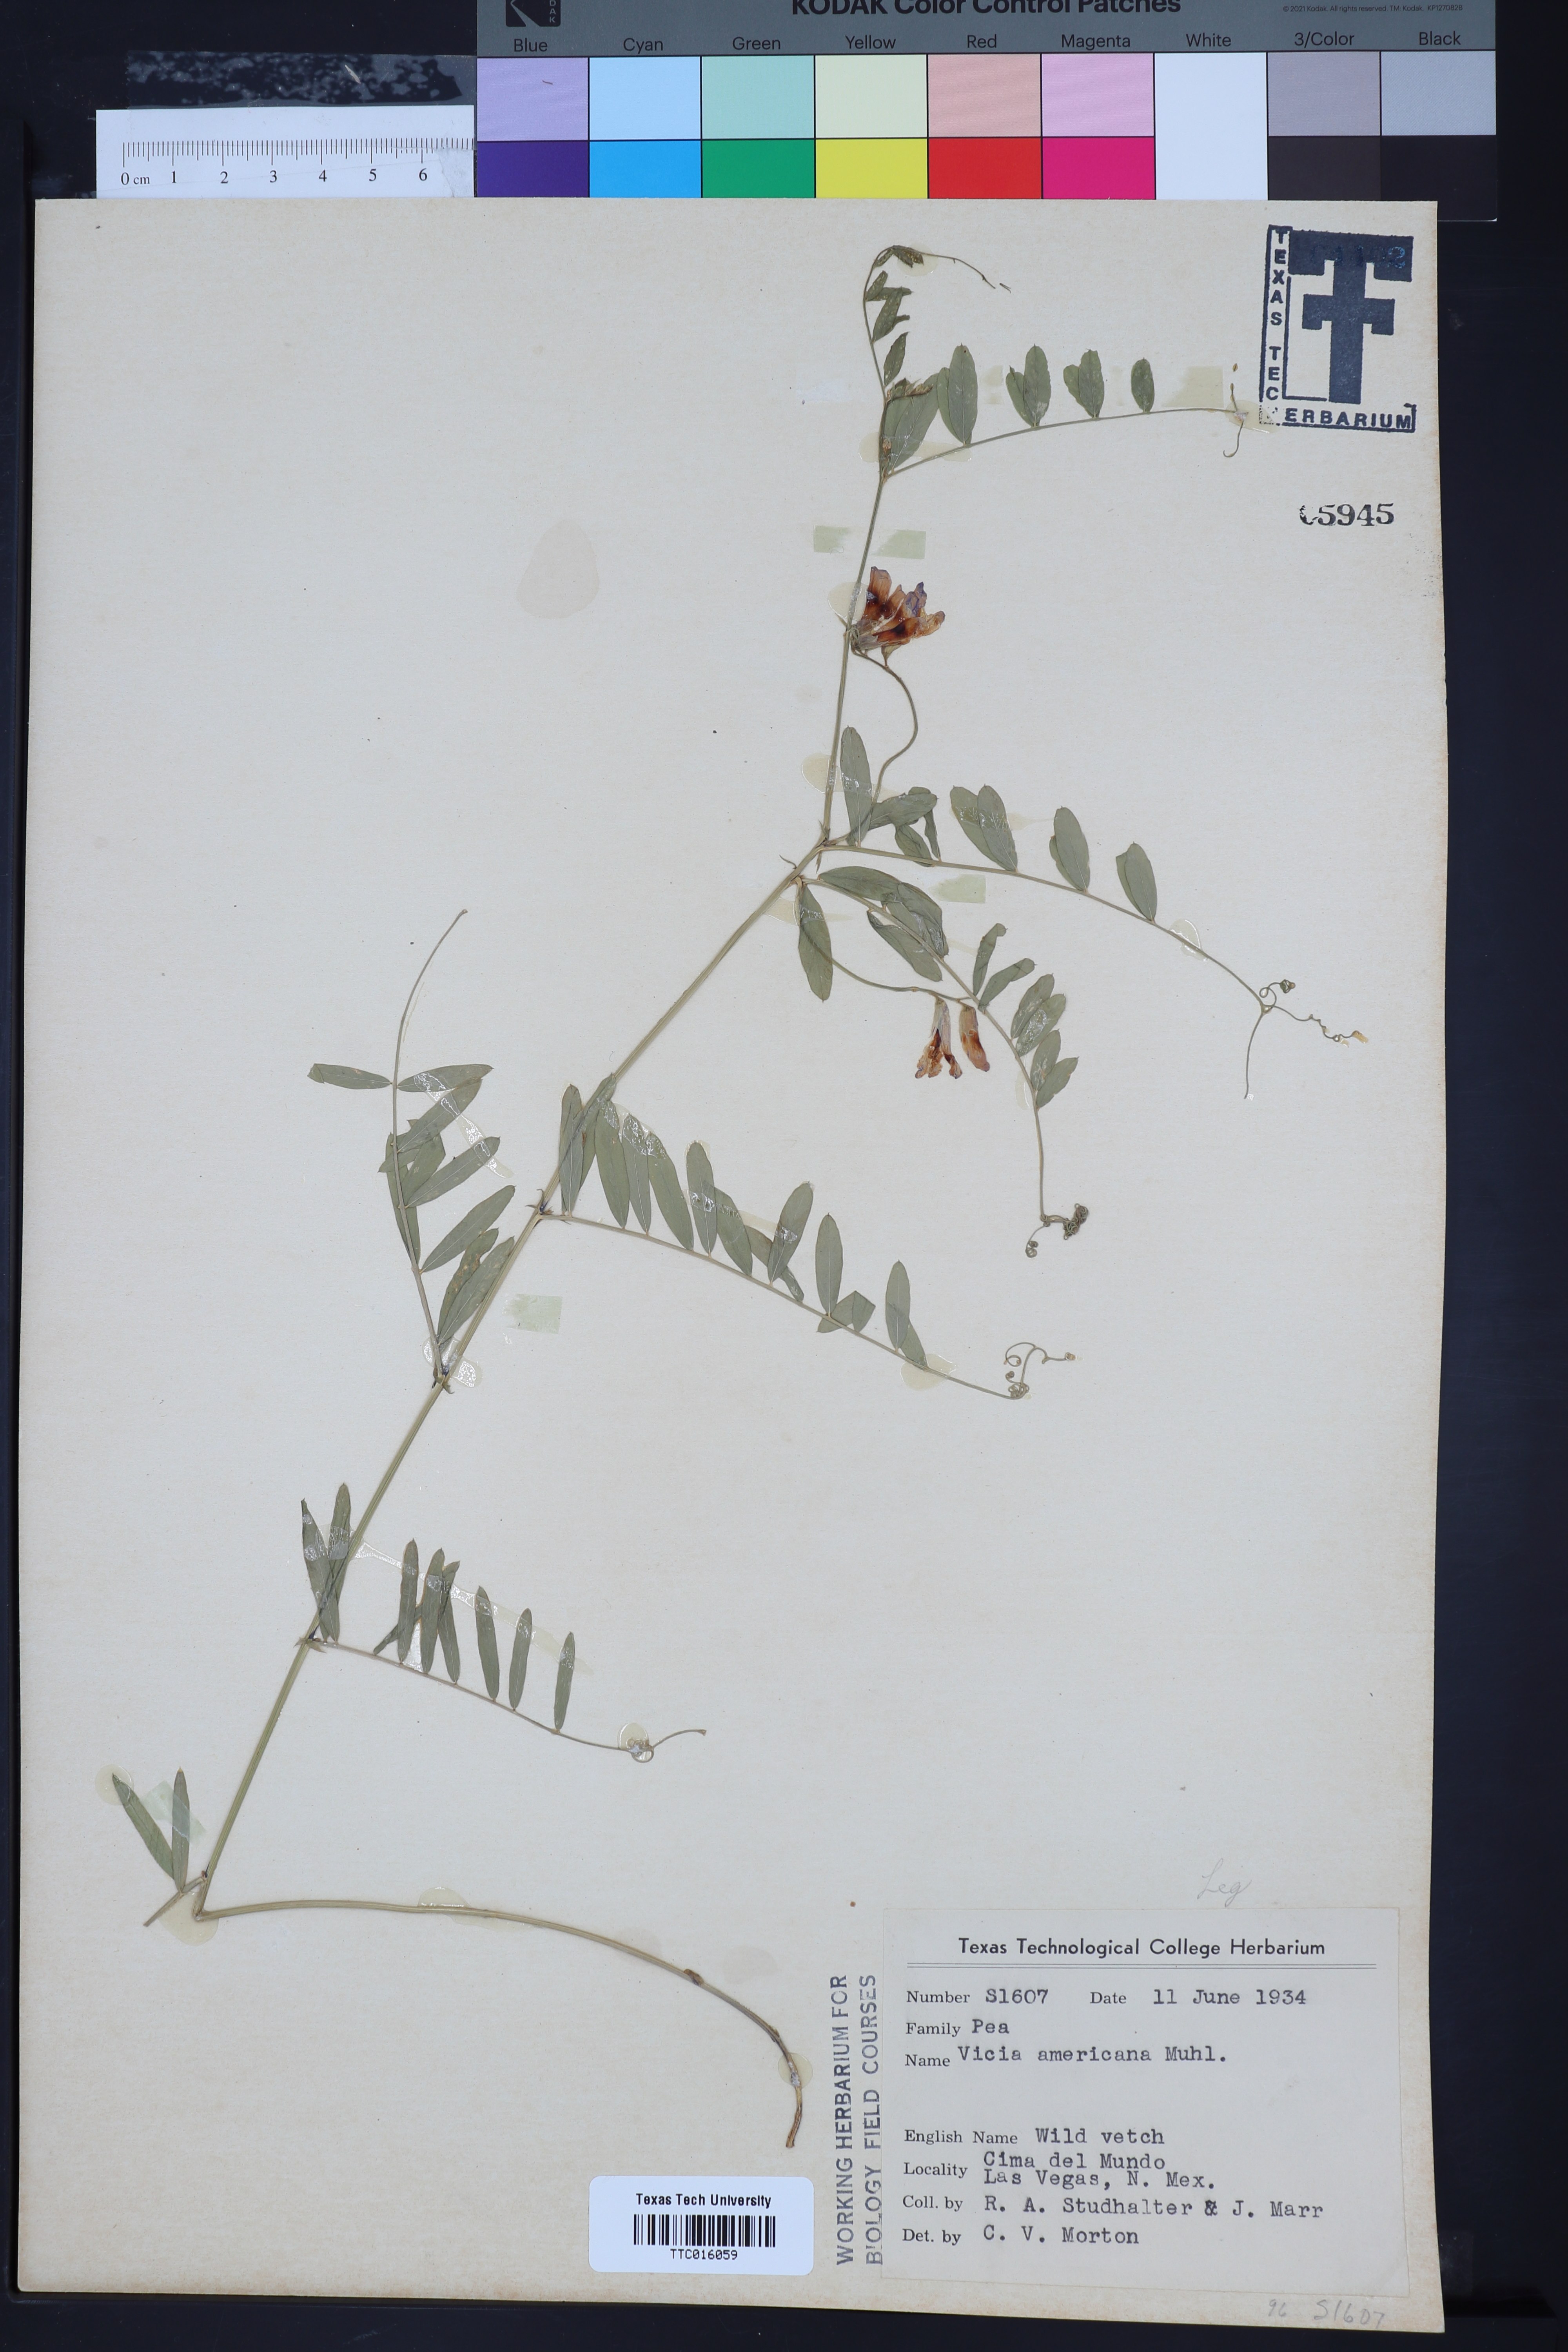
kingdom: Plantae
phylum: Tracheophyta
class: Magnoliopsida
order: Fabales
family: Fabaceae
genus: Vicia
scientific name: Vicia americana
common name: American vetch
